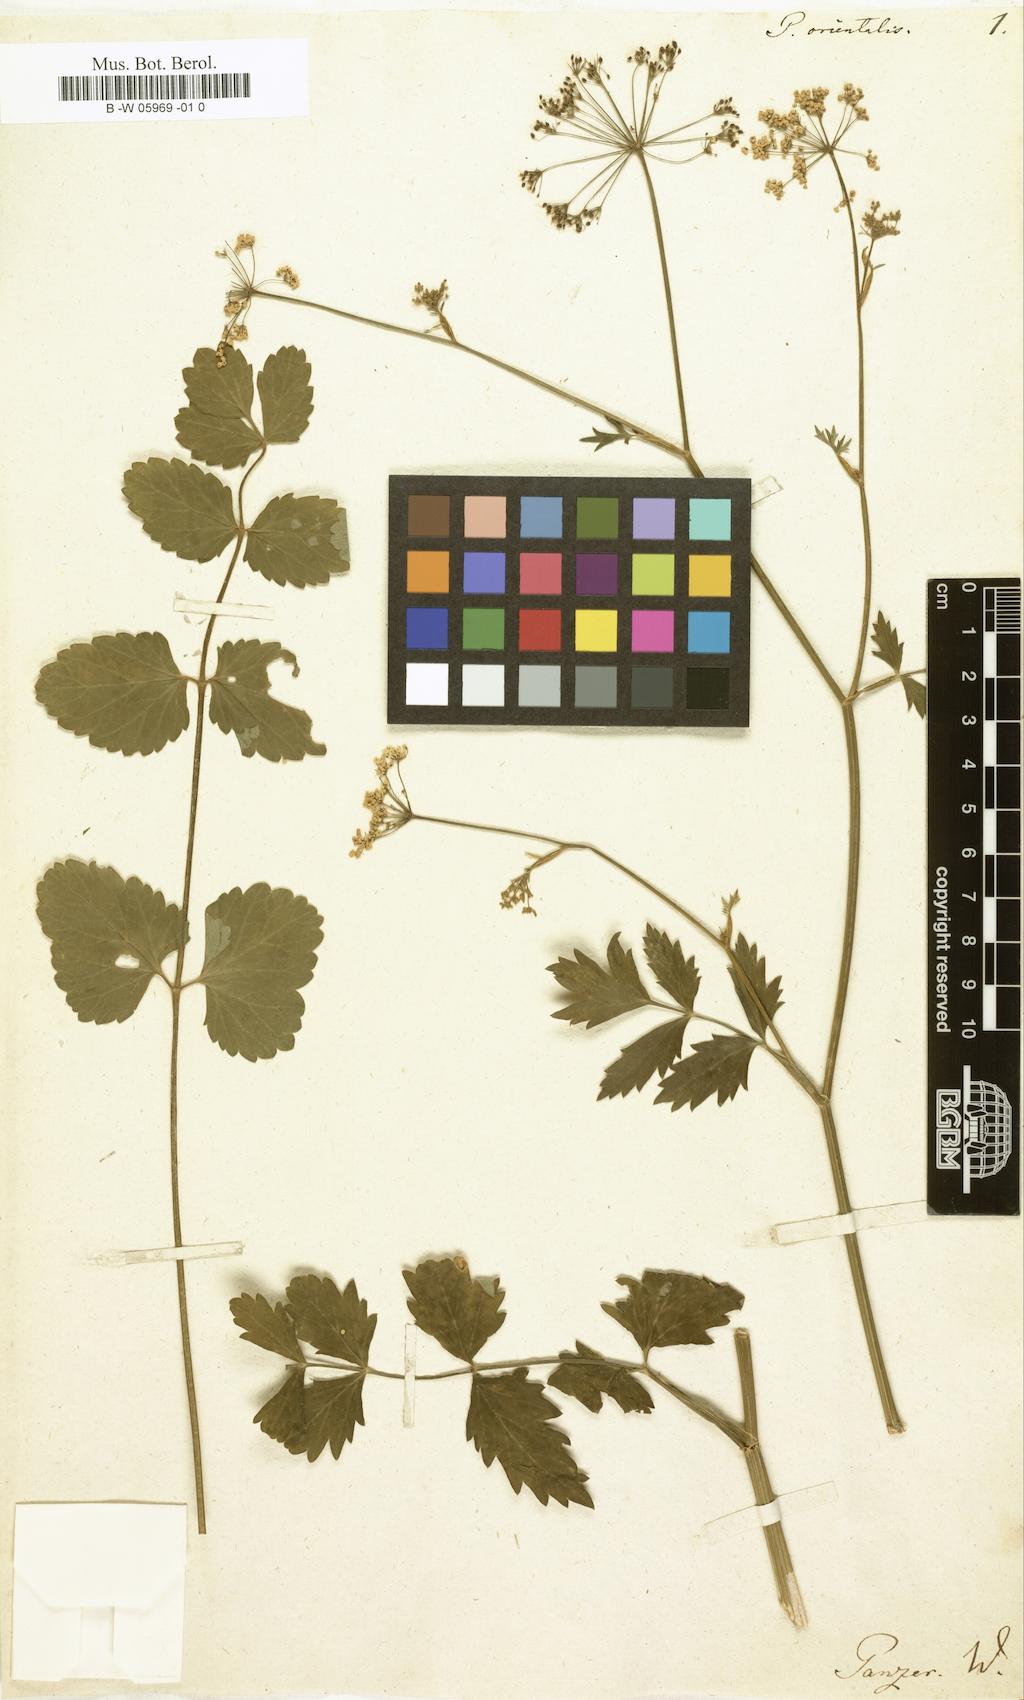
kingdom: Plantae
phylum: Tracheophyta
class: Magnoliopsida
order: Apiales
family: Apiaceae
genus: Pimpinella
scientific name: Pimpinella major
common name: Greater burnet-saxifrage
